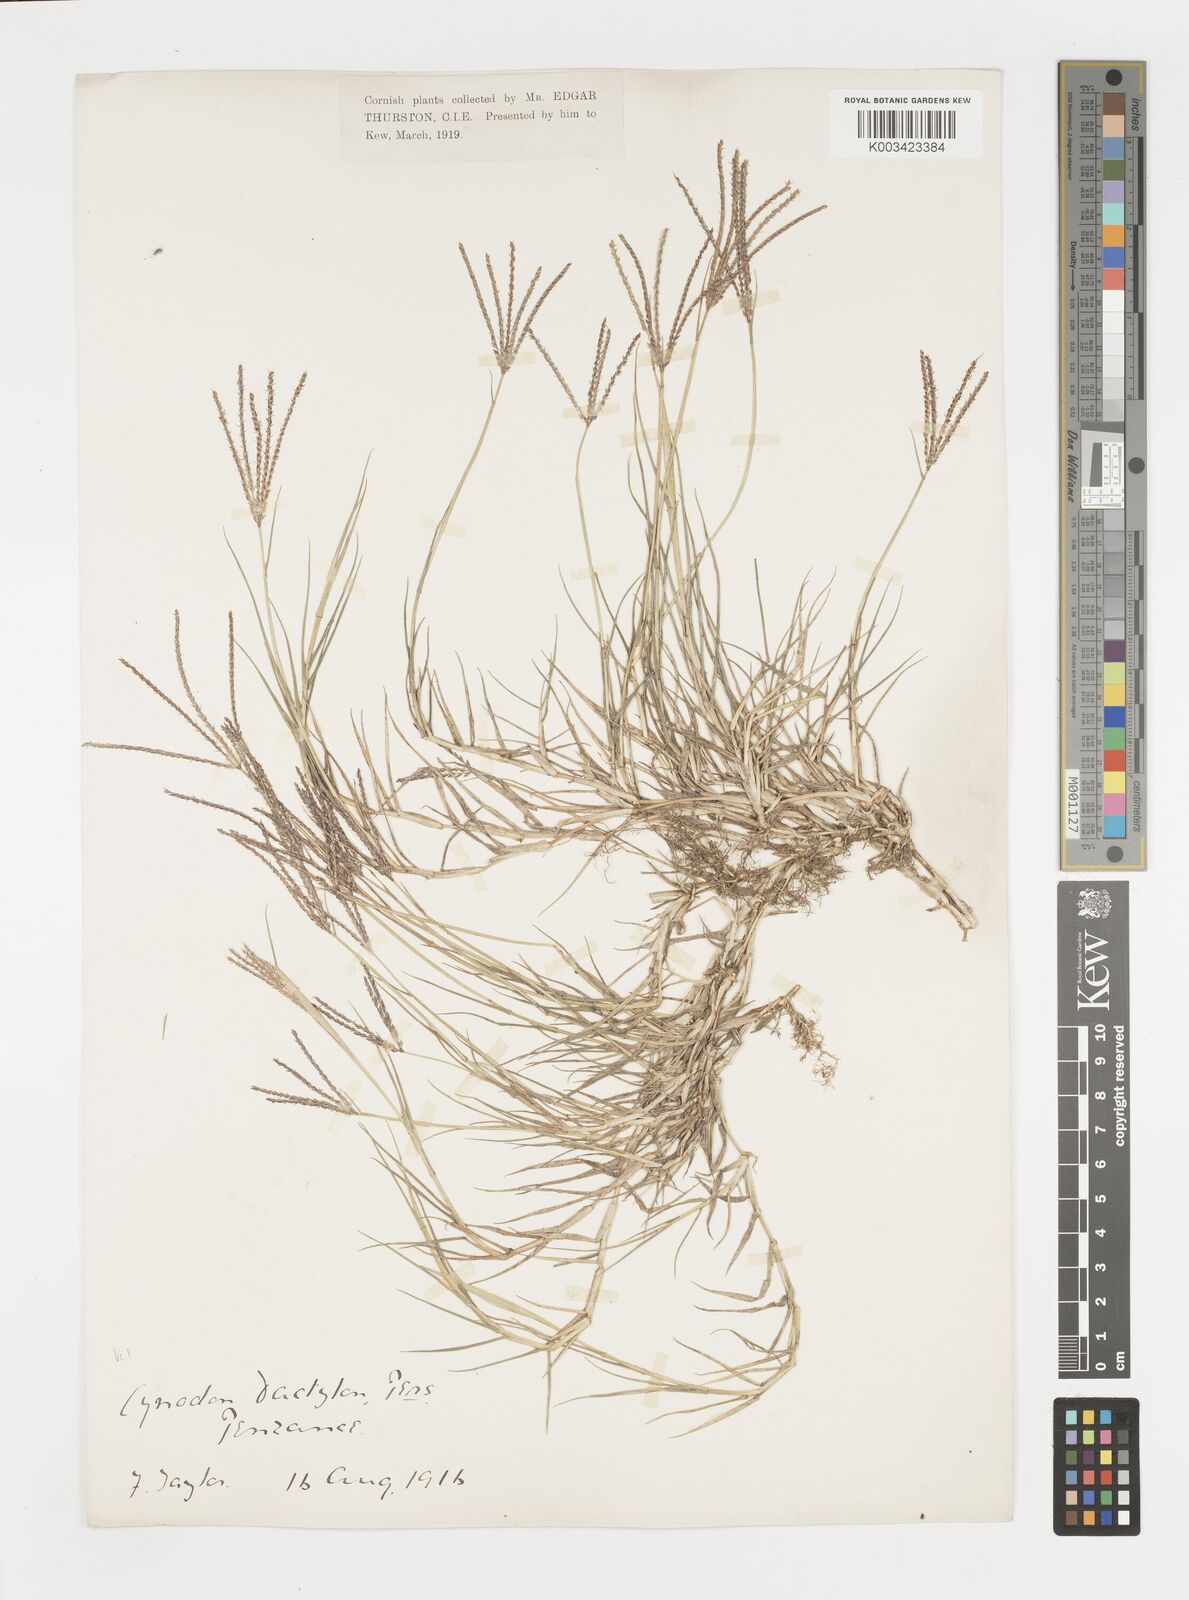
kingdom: Plantae
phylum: Tracheophyta
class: Liliopsida
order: Poales
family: Poaceae
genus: Cynodon
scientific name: Cynodon dactylon
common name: Bermuda grass
